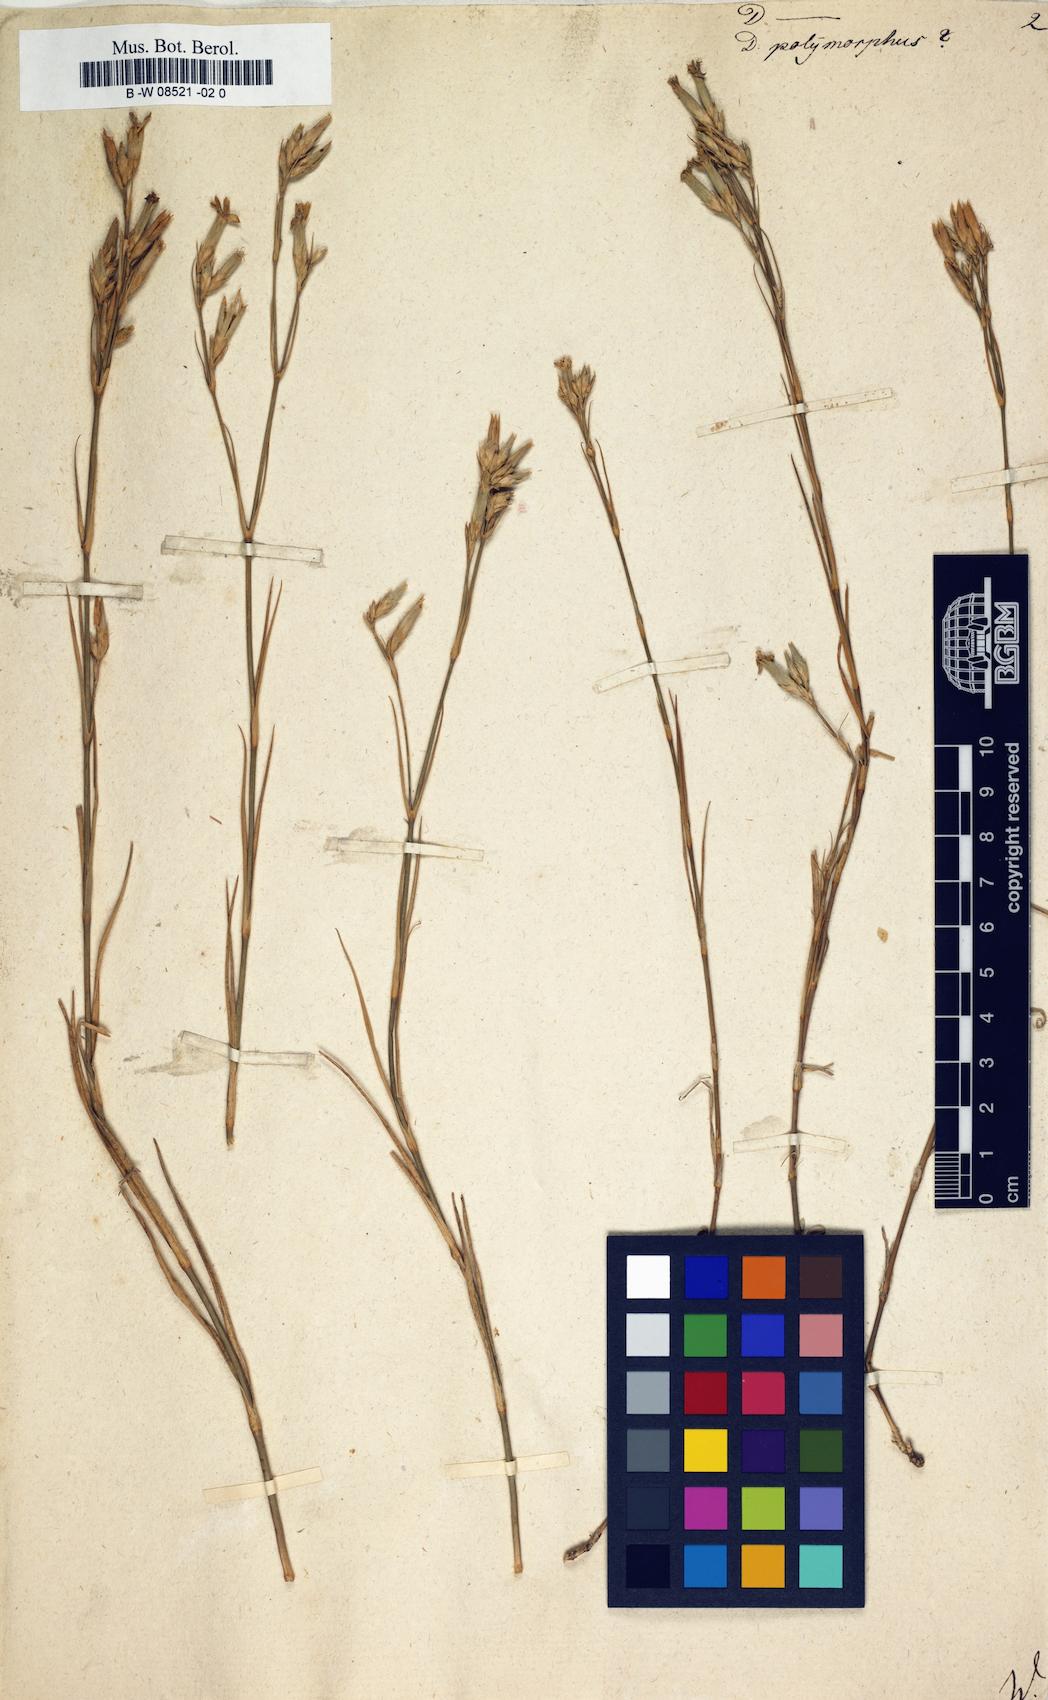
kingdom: Plantae
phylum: Tracheophyta
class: Magnoliopsida
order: Caryophyllales
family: Caryophyllaceae
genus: Dianthus
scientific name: Dianthus polymorphus
